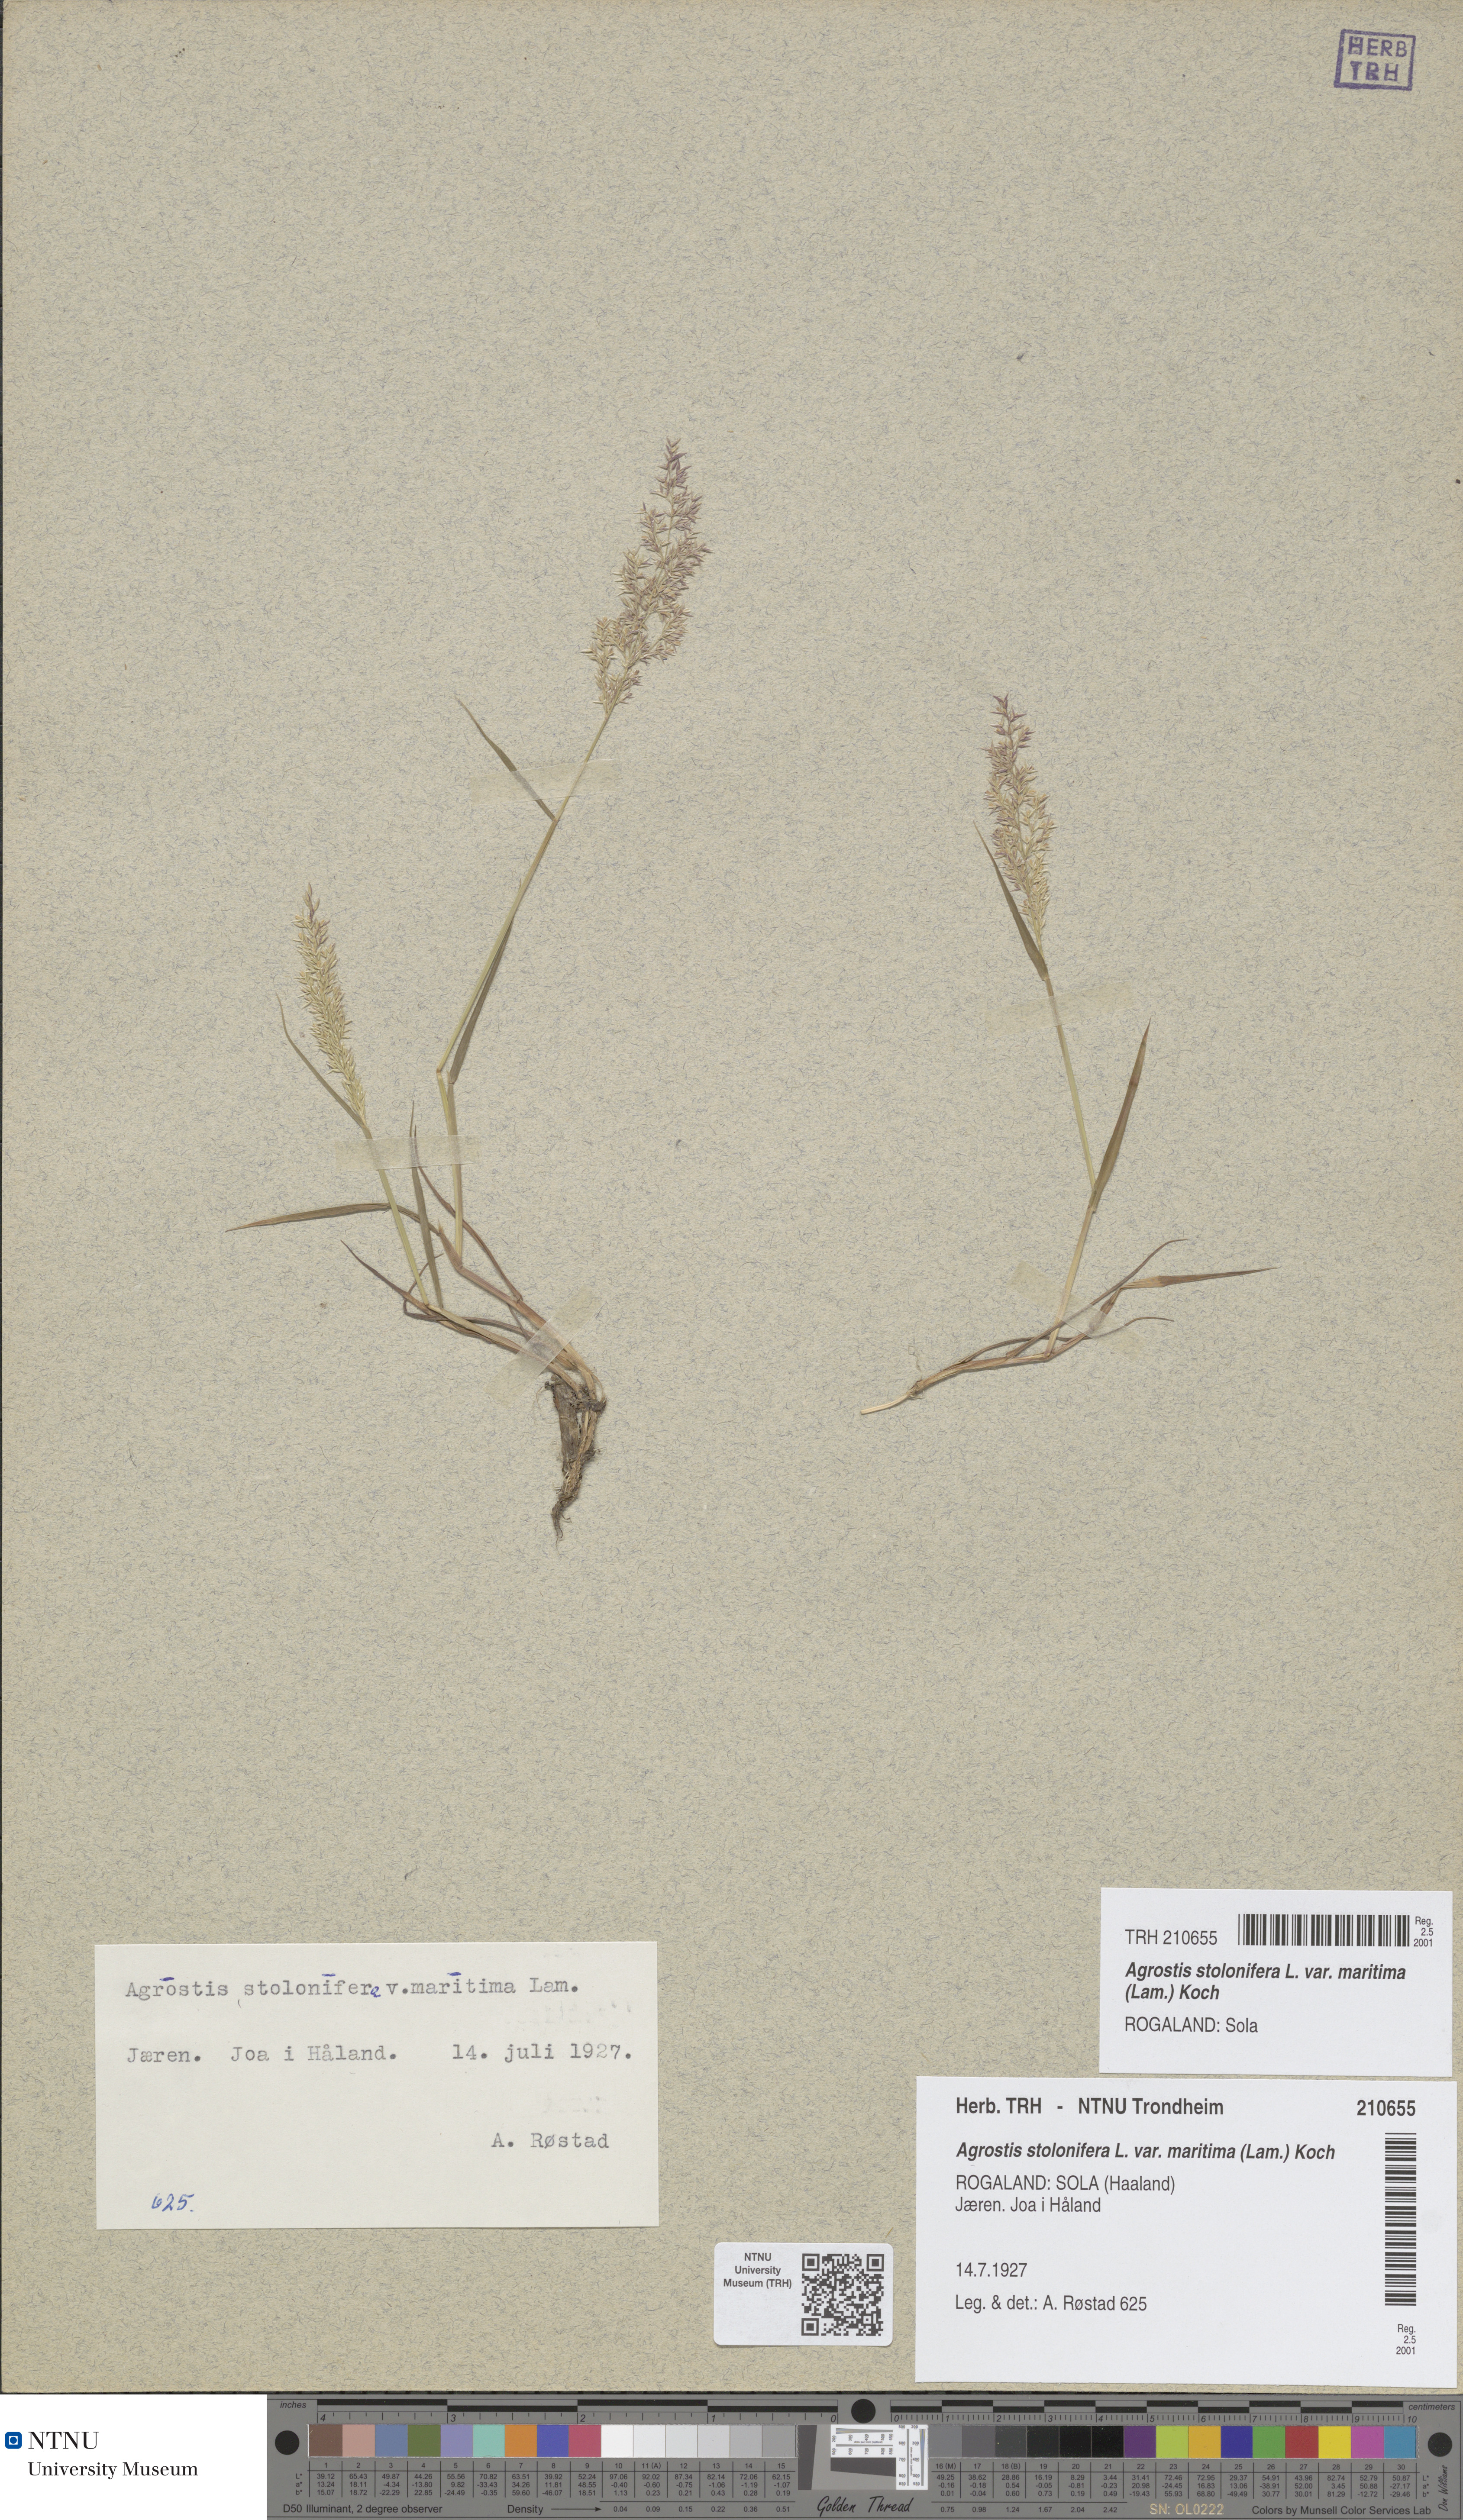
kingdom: Plantae
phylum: Tracheophyta
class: Liliopsida
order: Poales
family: Poaceae
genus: Agrostis
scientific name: Agrostis stolonifera
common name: Creeping bentgrass
